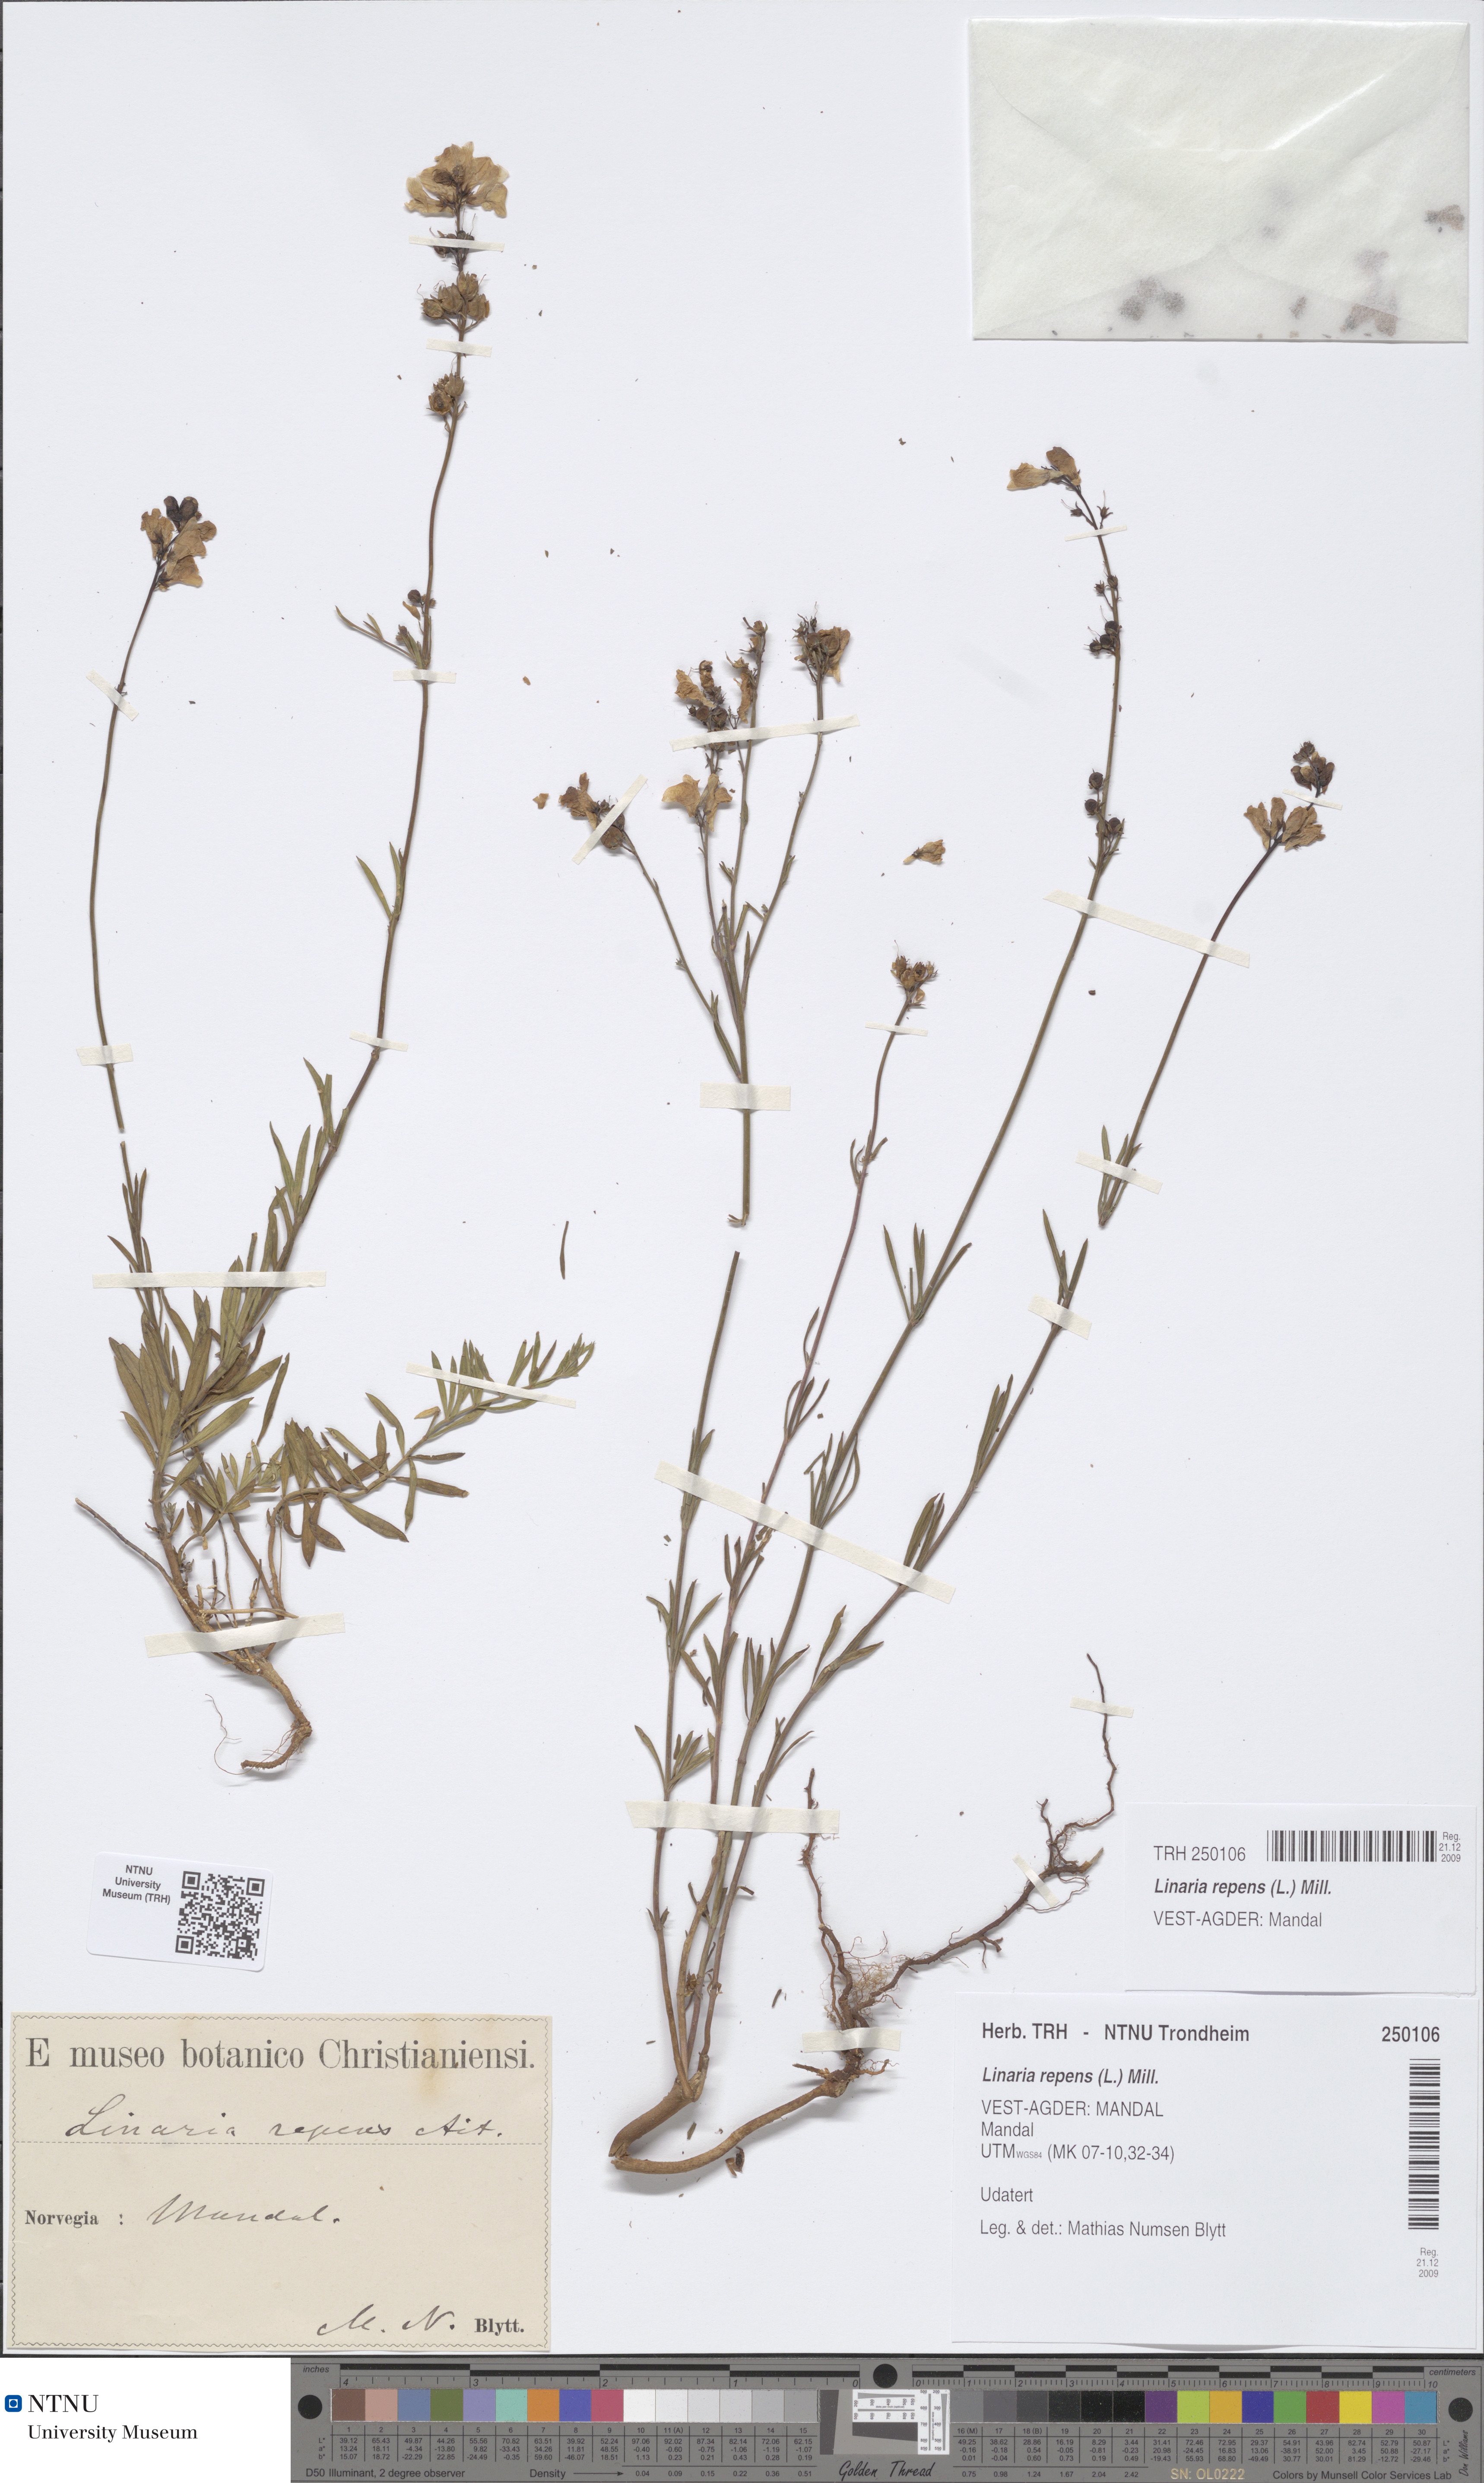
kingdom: Plantae
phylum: Tracheophyta
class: Magnoliopsida
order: Lamiales
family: Plantaginaceae
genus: Linaria
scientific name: Linaria repens
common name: Pale toadflax
